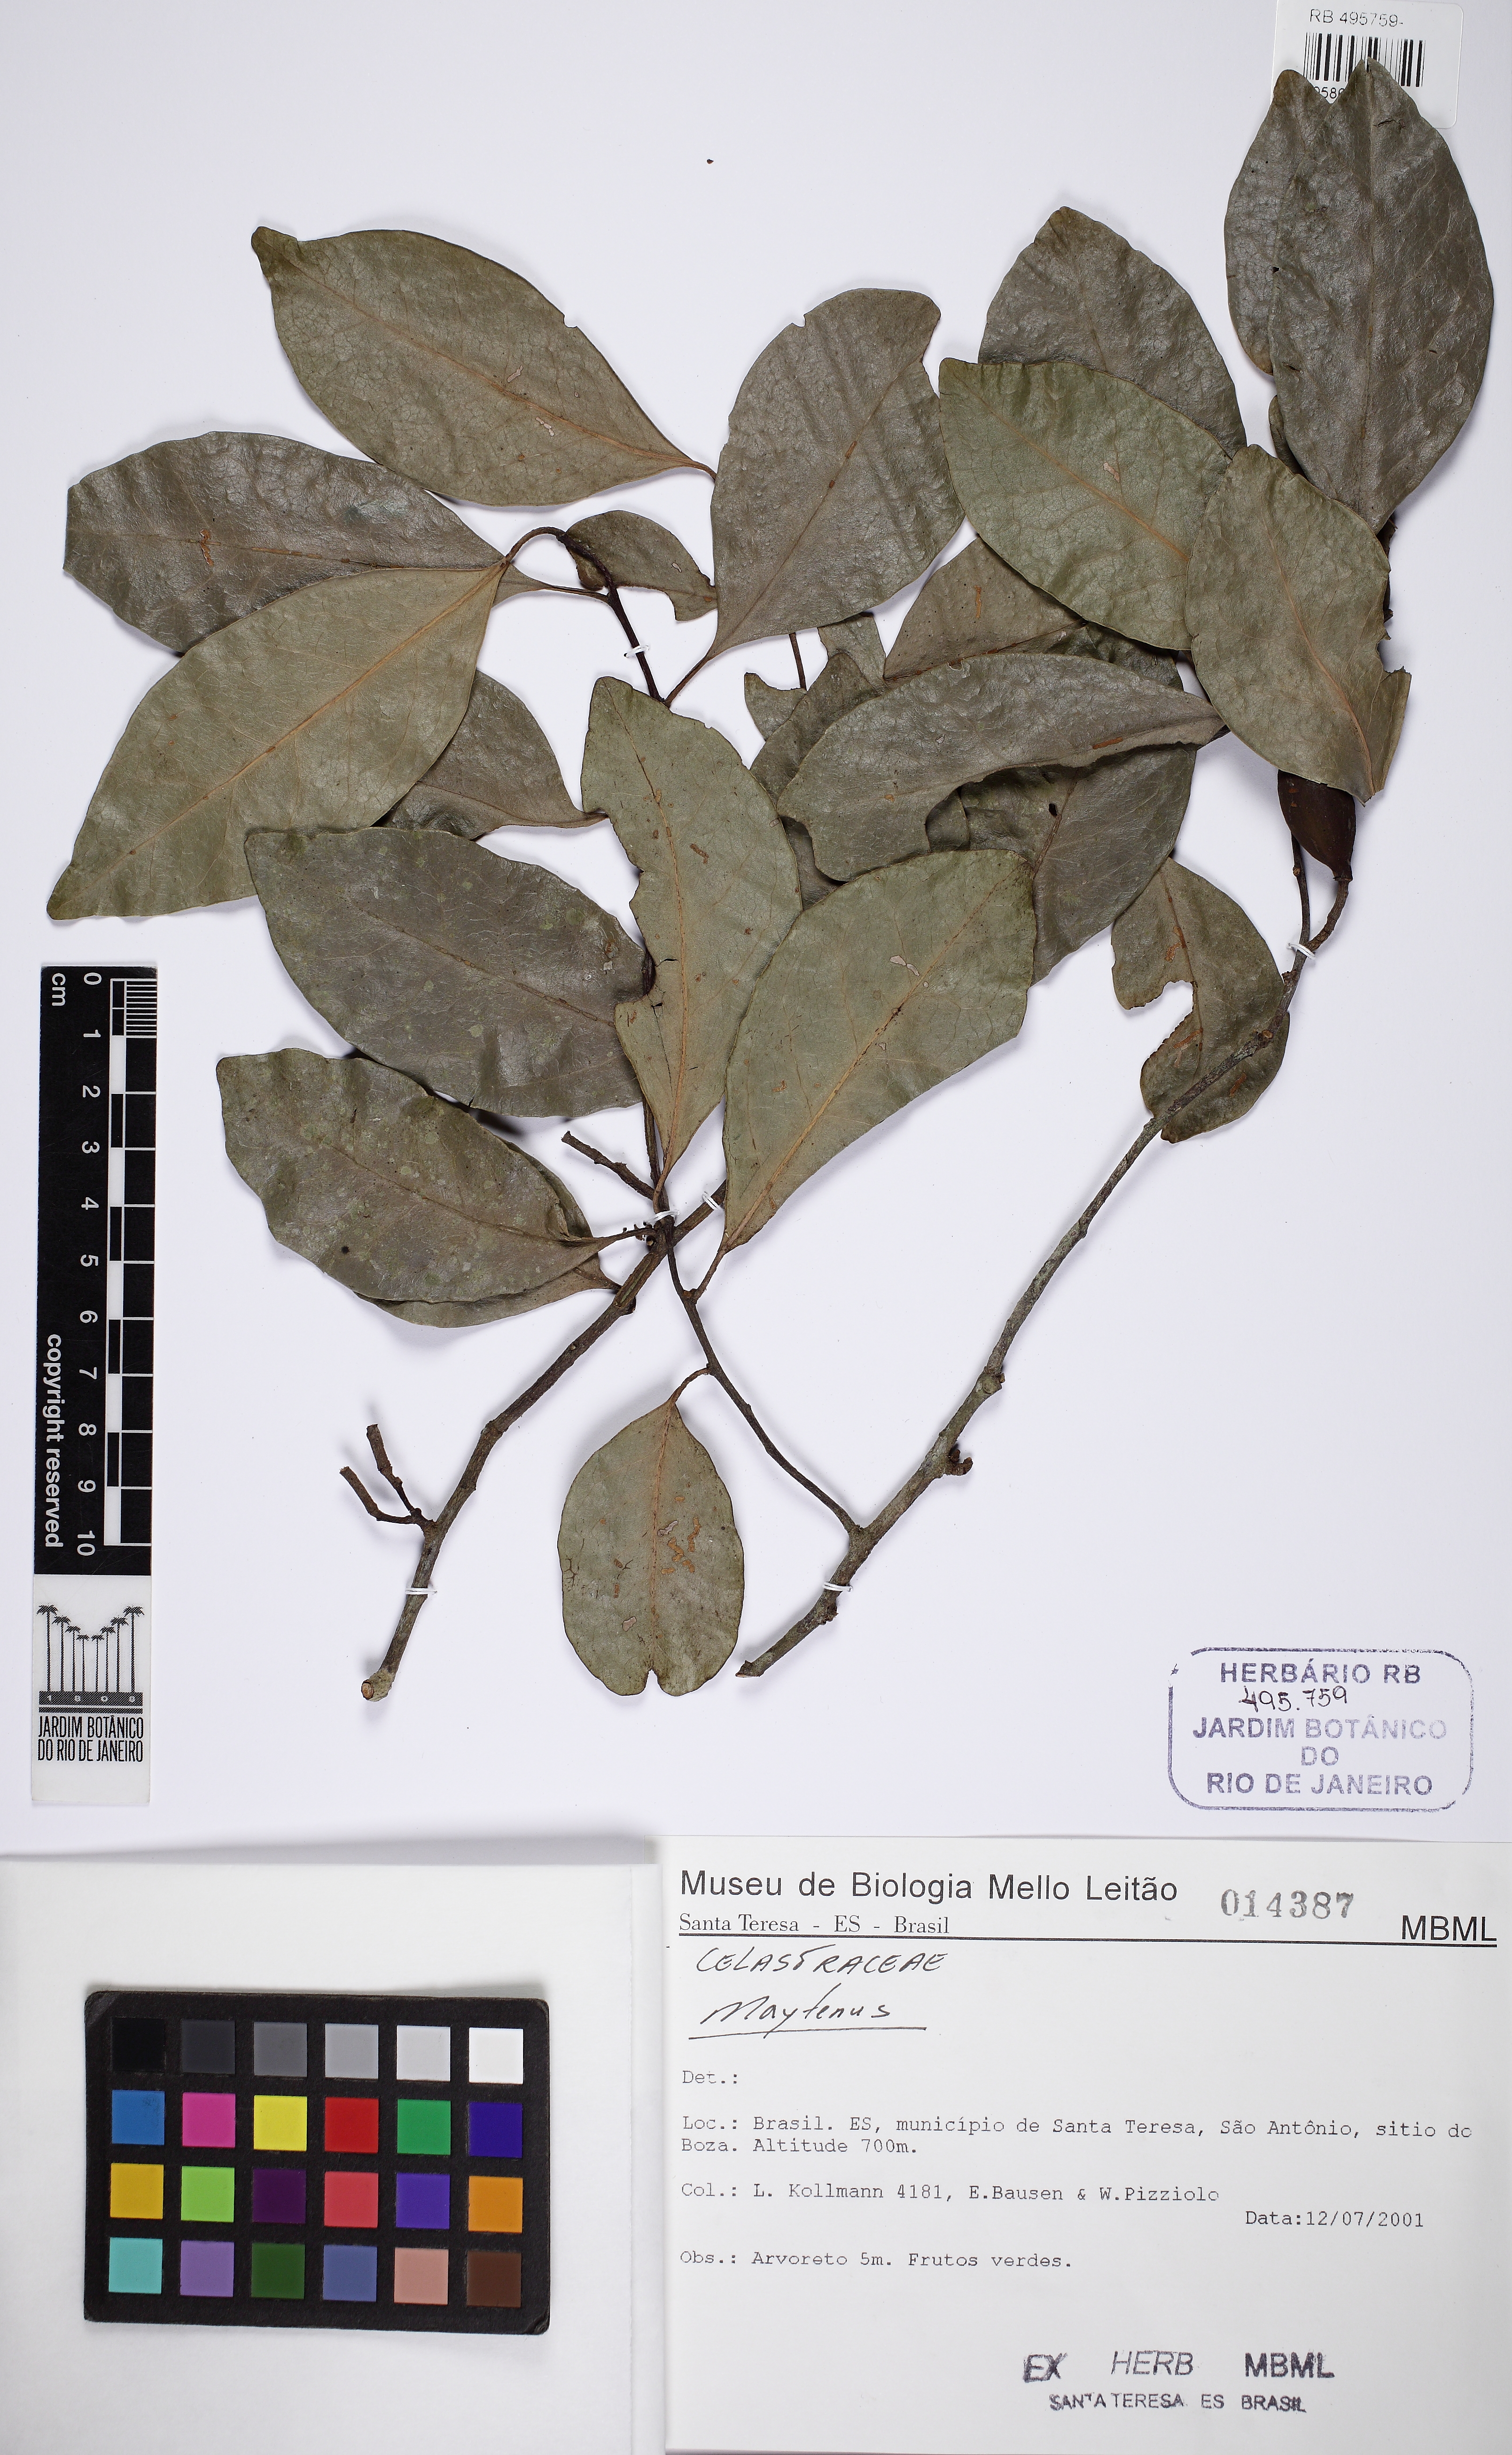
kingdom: Plantae
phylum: Tracheophyta
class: Magnoliopsida
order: Celastrales
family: Celastraceae
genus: Maytenus
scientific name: Maytenus
